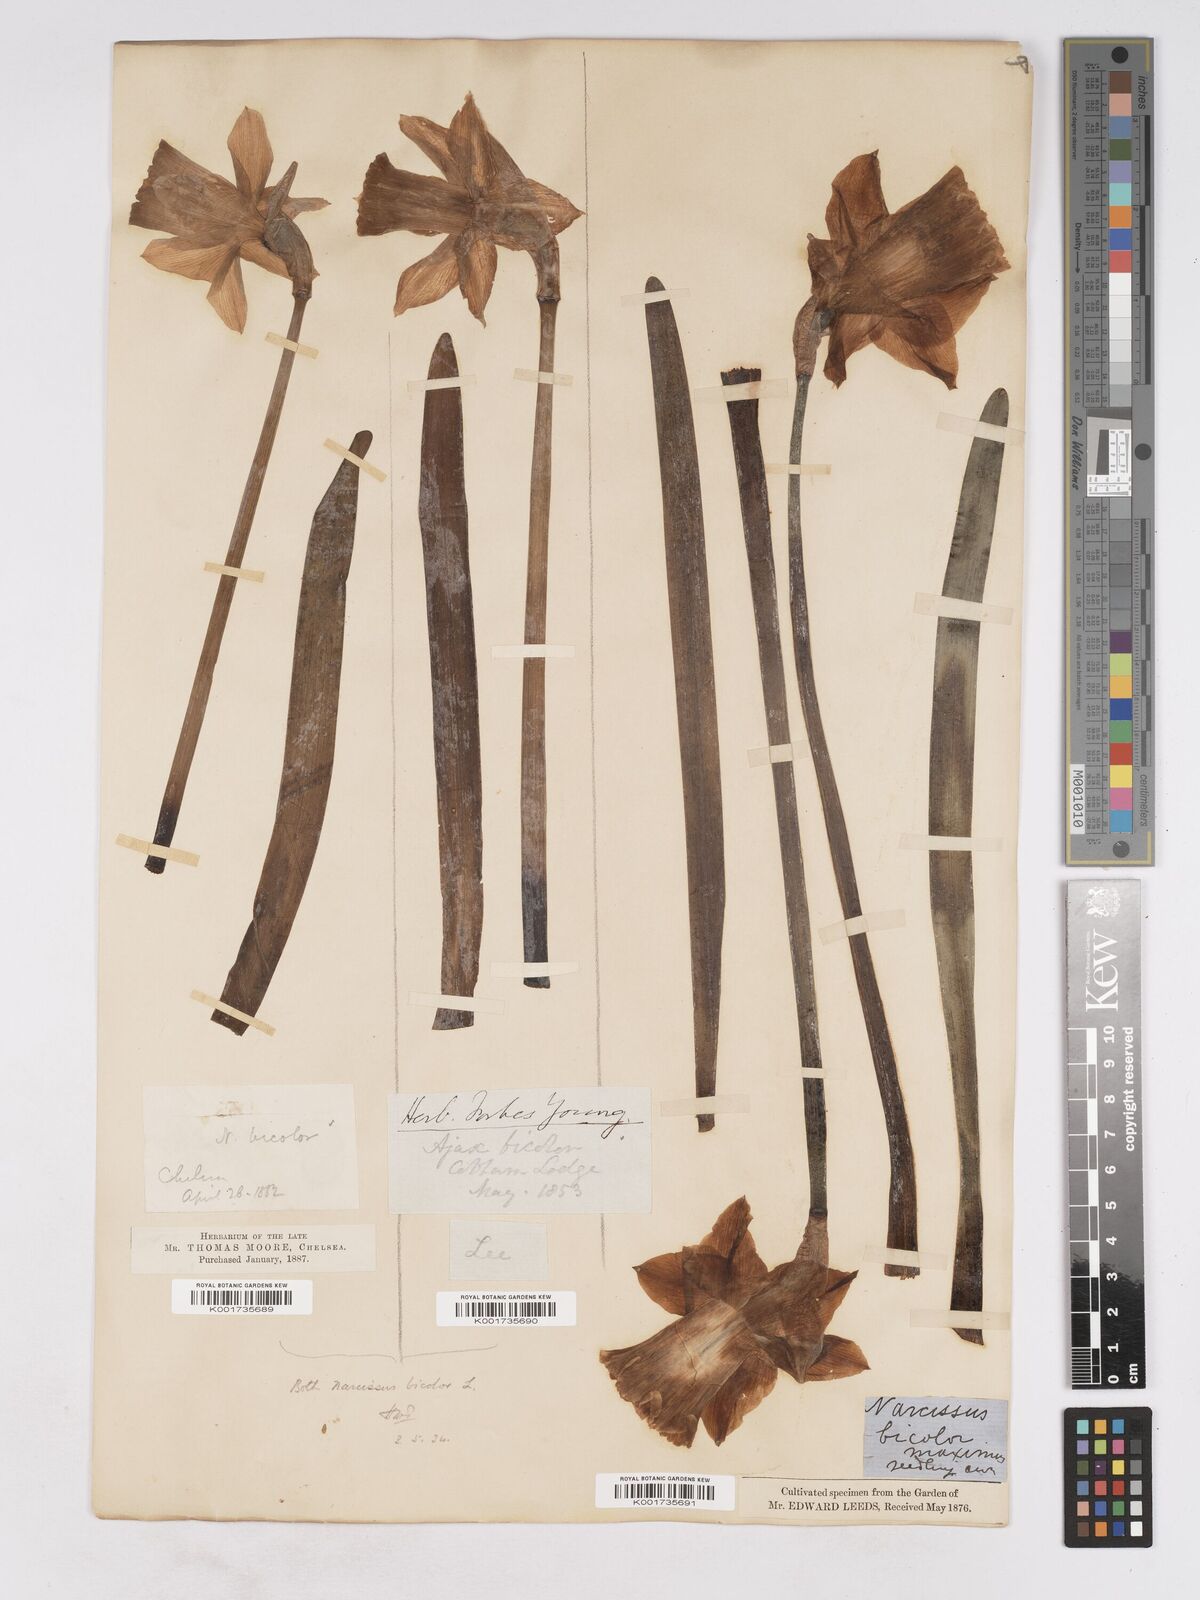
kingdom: Plantae
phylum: Tracheophyta
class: Liliopsida
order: Asparagales
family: Amaryllidaceae
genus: Narcissus
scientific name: Narcissus bicolor
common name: Two-color daffodil
